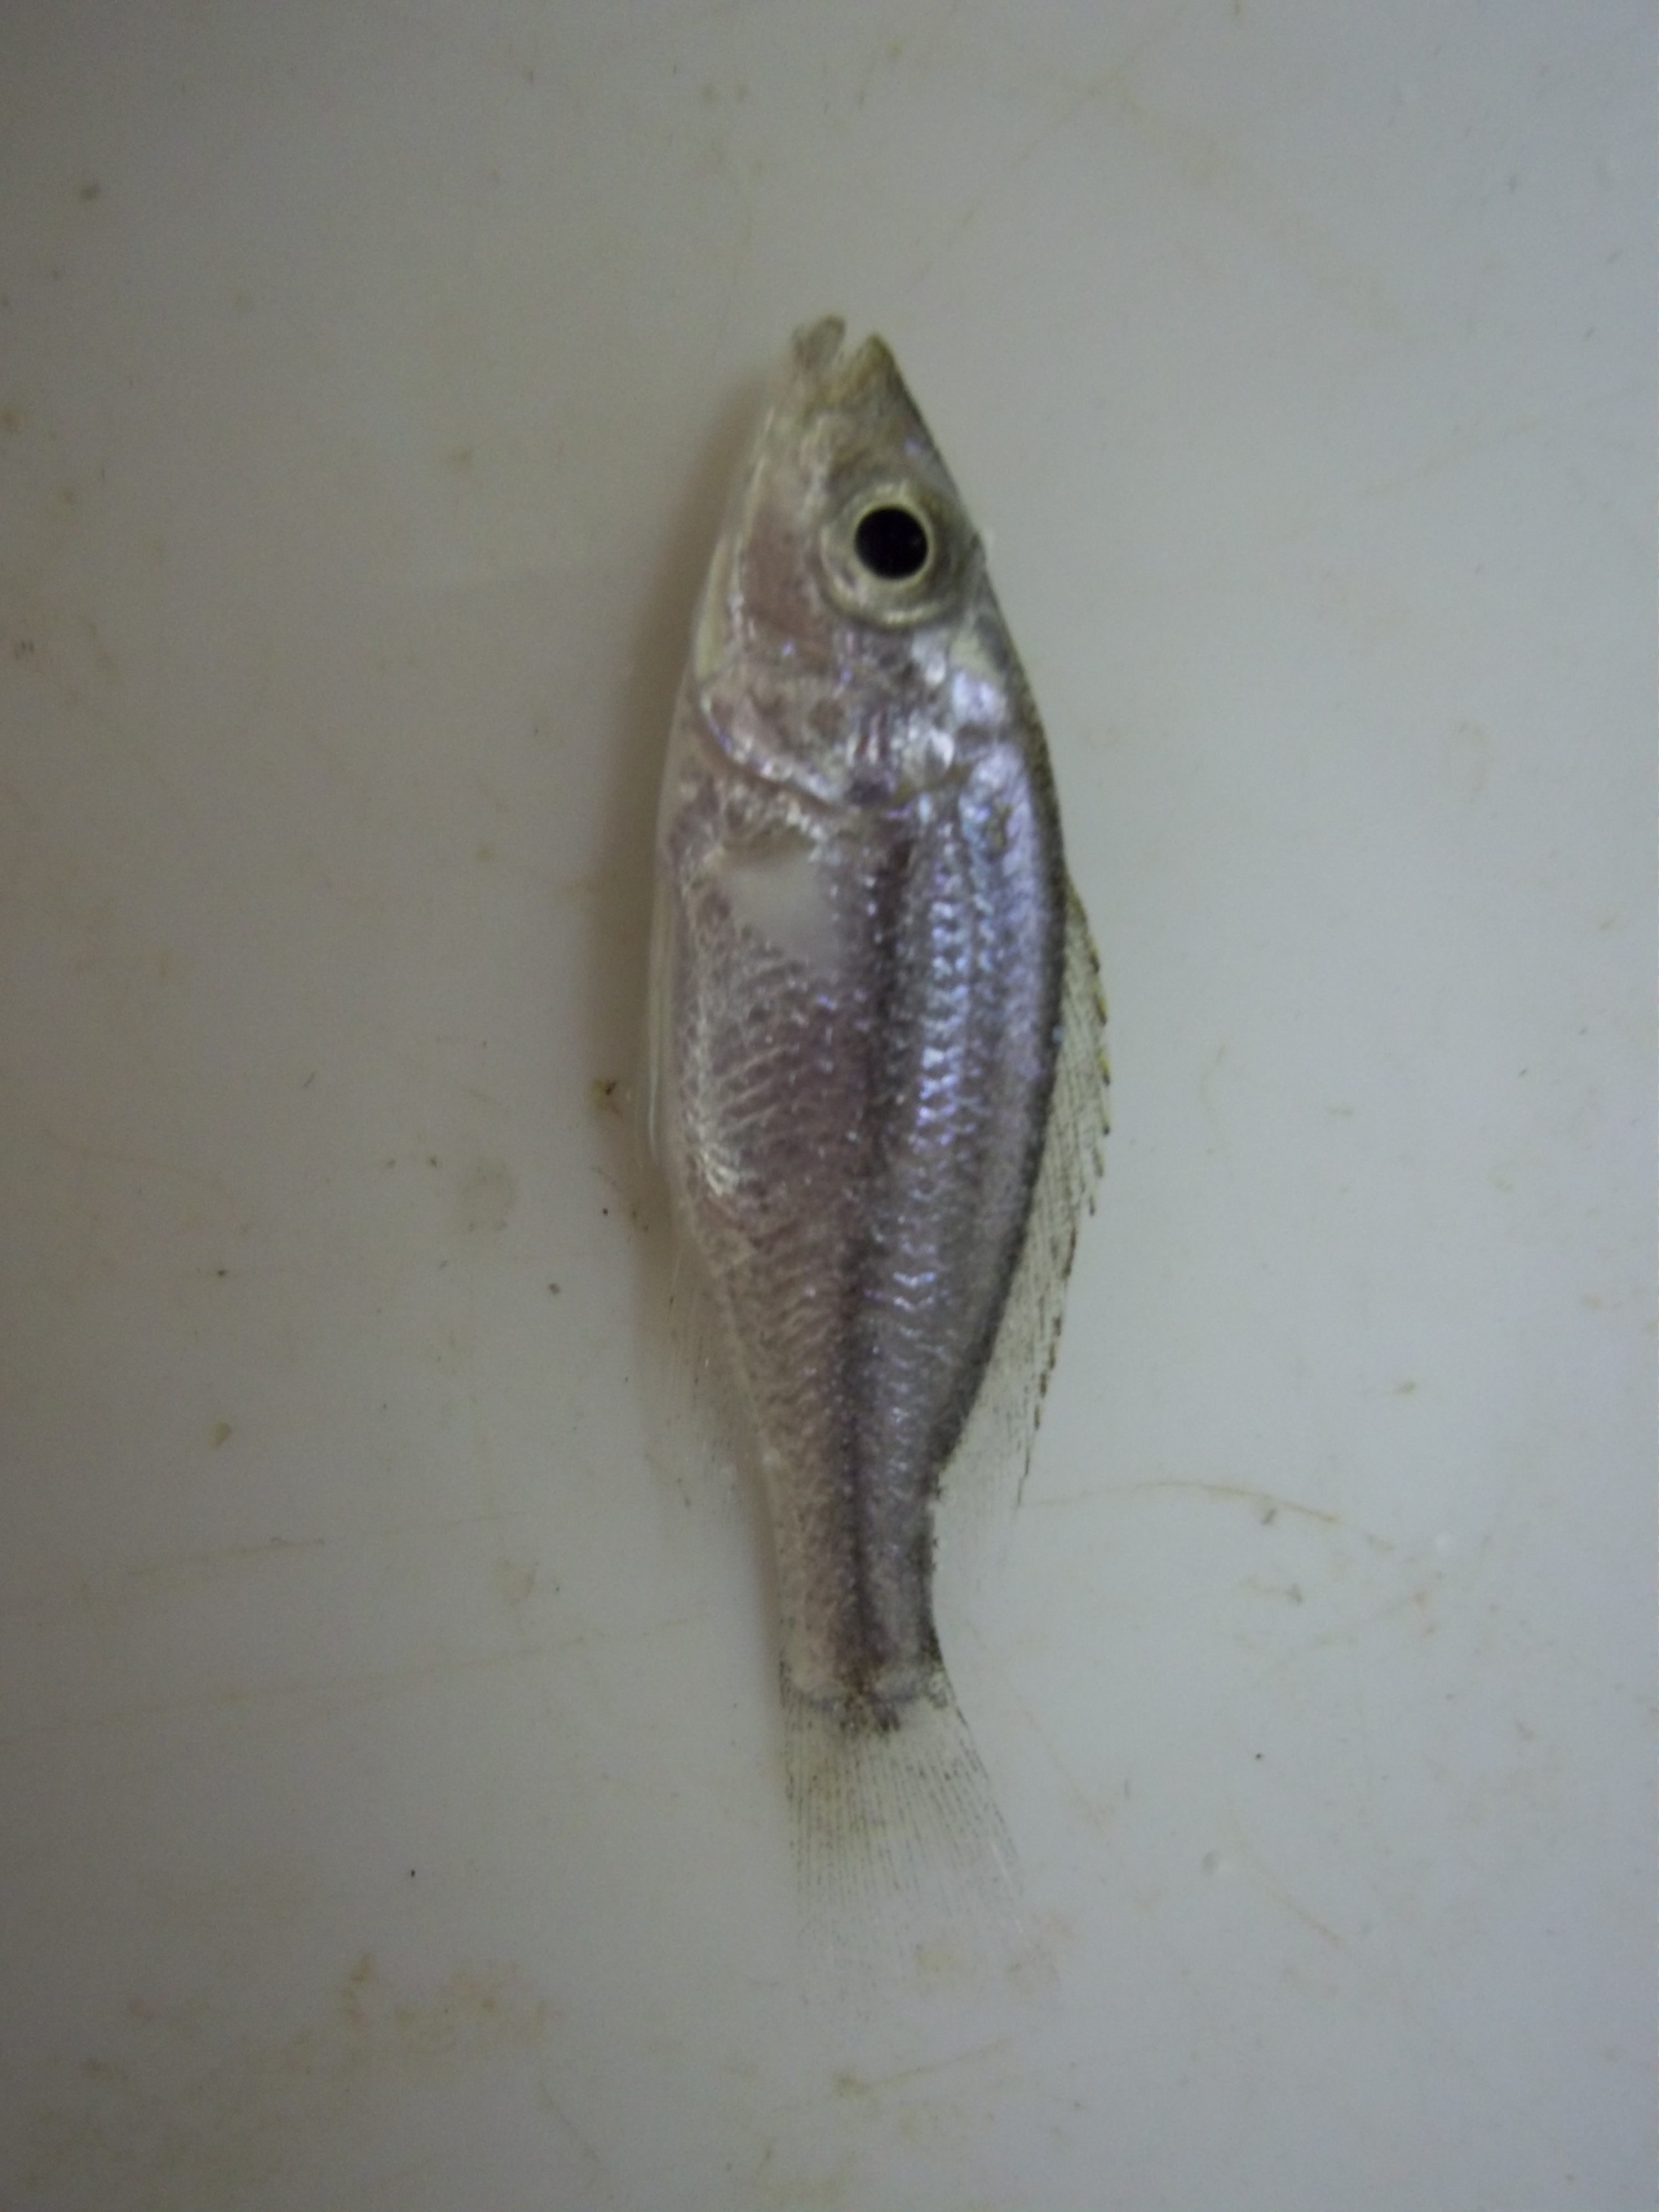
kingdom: Animalia
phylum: Chordata
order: Perciformes
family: Cichlidae
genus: Dimidiochromis
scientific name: Dimidiochromis compressiceps
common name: Malawi eyebiter
